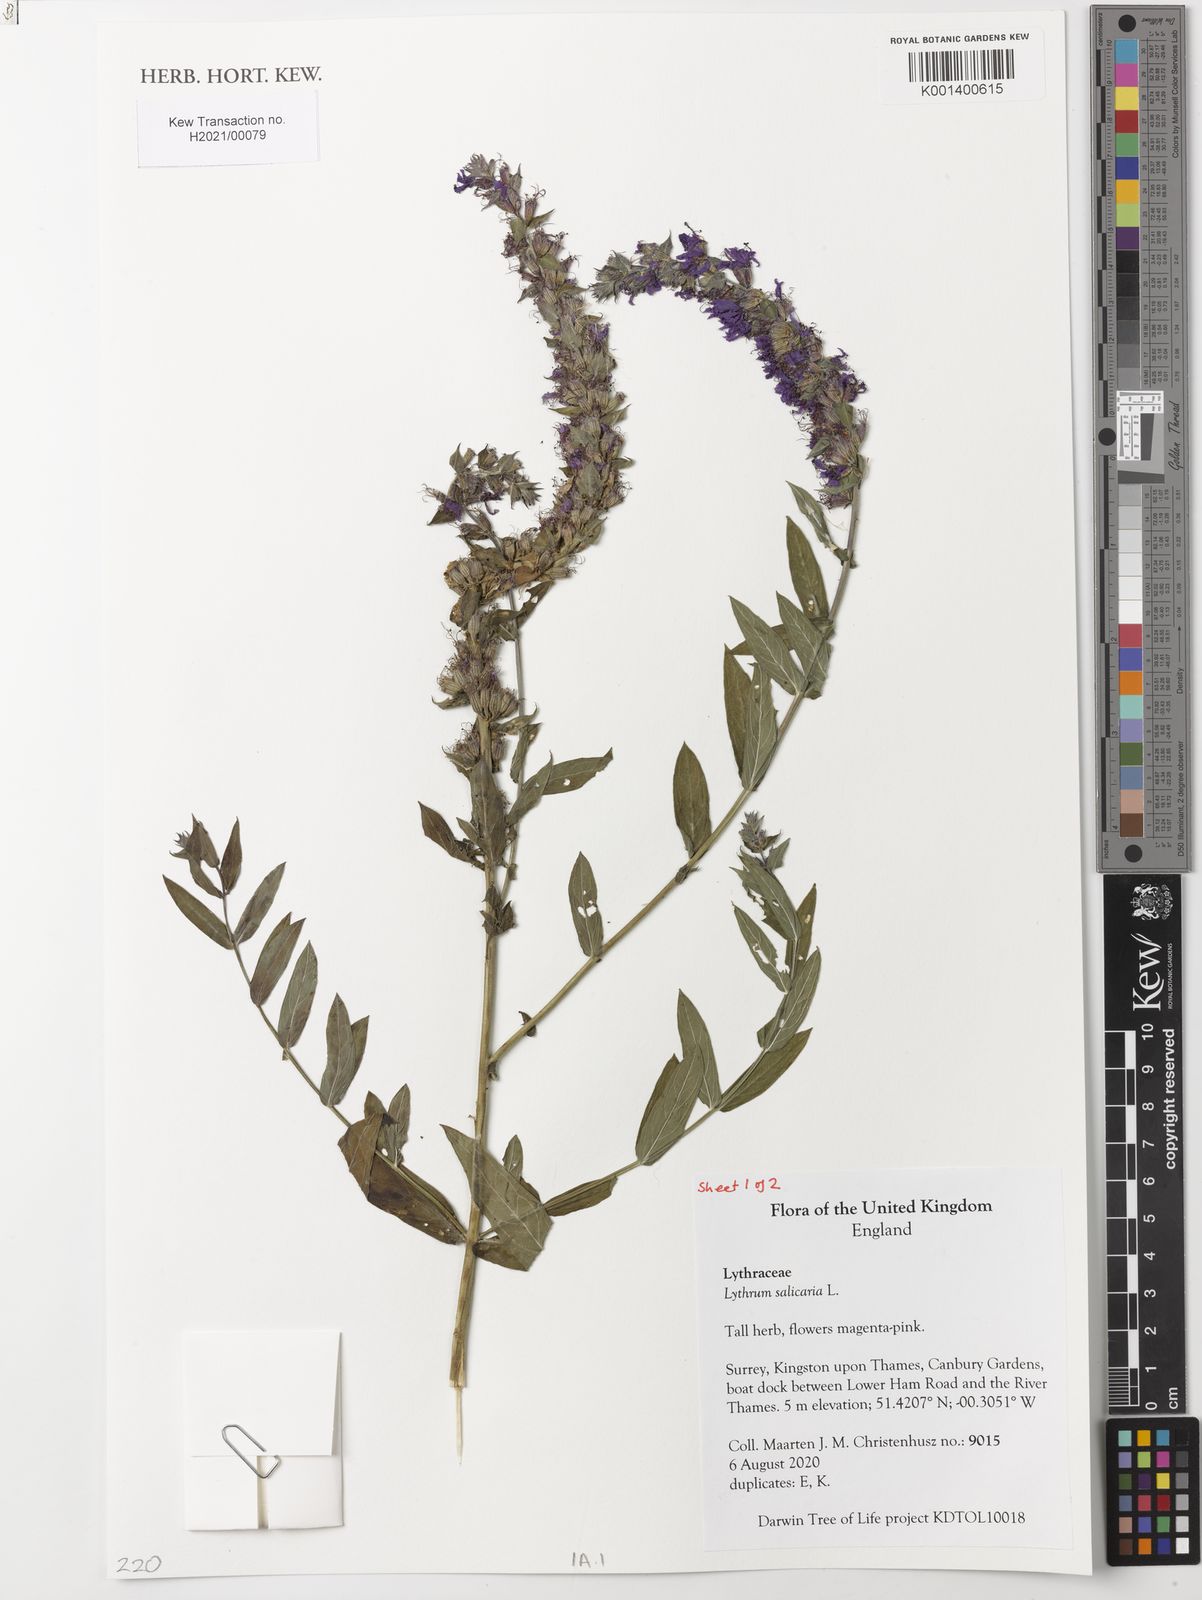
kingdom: Plantae
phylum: Tracheophyta
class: Magnoliopsida
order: Myrtales
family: Lythraceae
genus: Lythrum
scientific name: Lythrum salicaria
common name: Purple loosestrife
